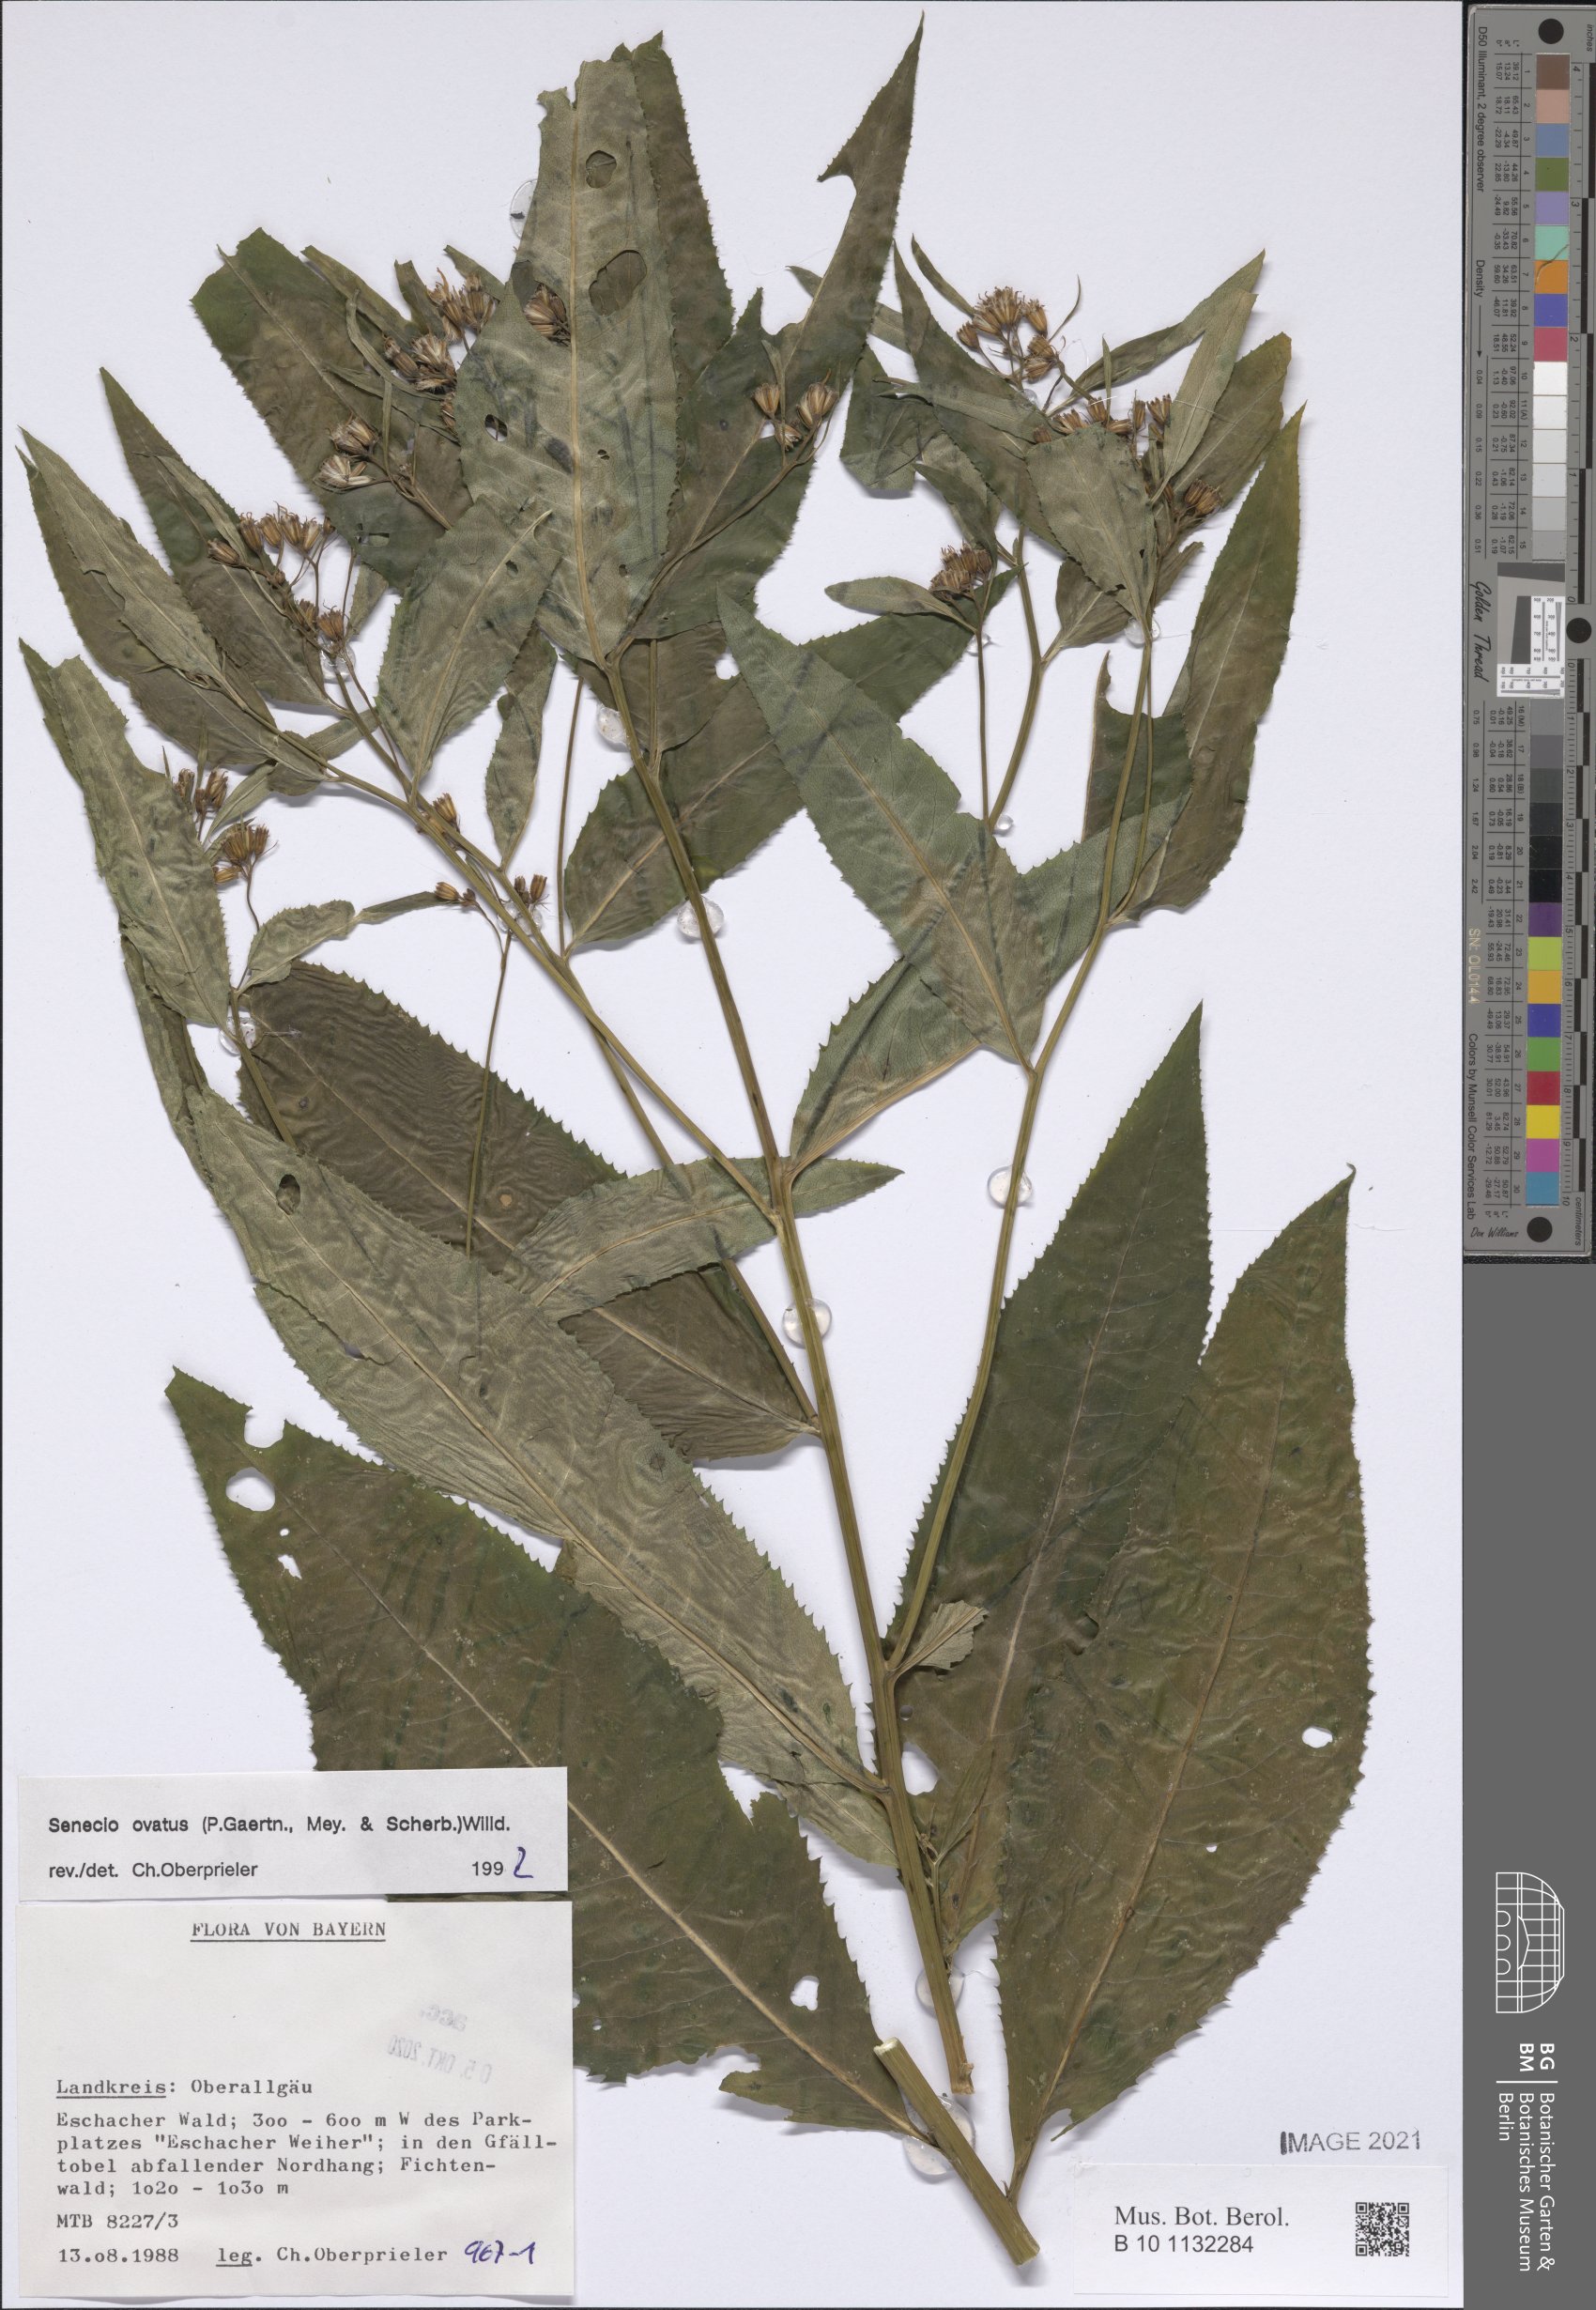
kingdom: Plantae
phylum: Tracheophyta
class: Magnoliopsida
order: Asterales
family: Asteraceae
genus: Senecio
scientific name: Senecio ovatus
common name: Wood ragwort
